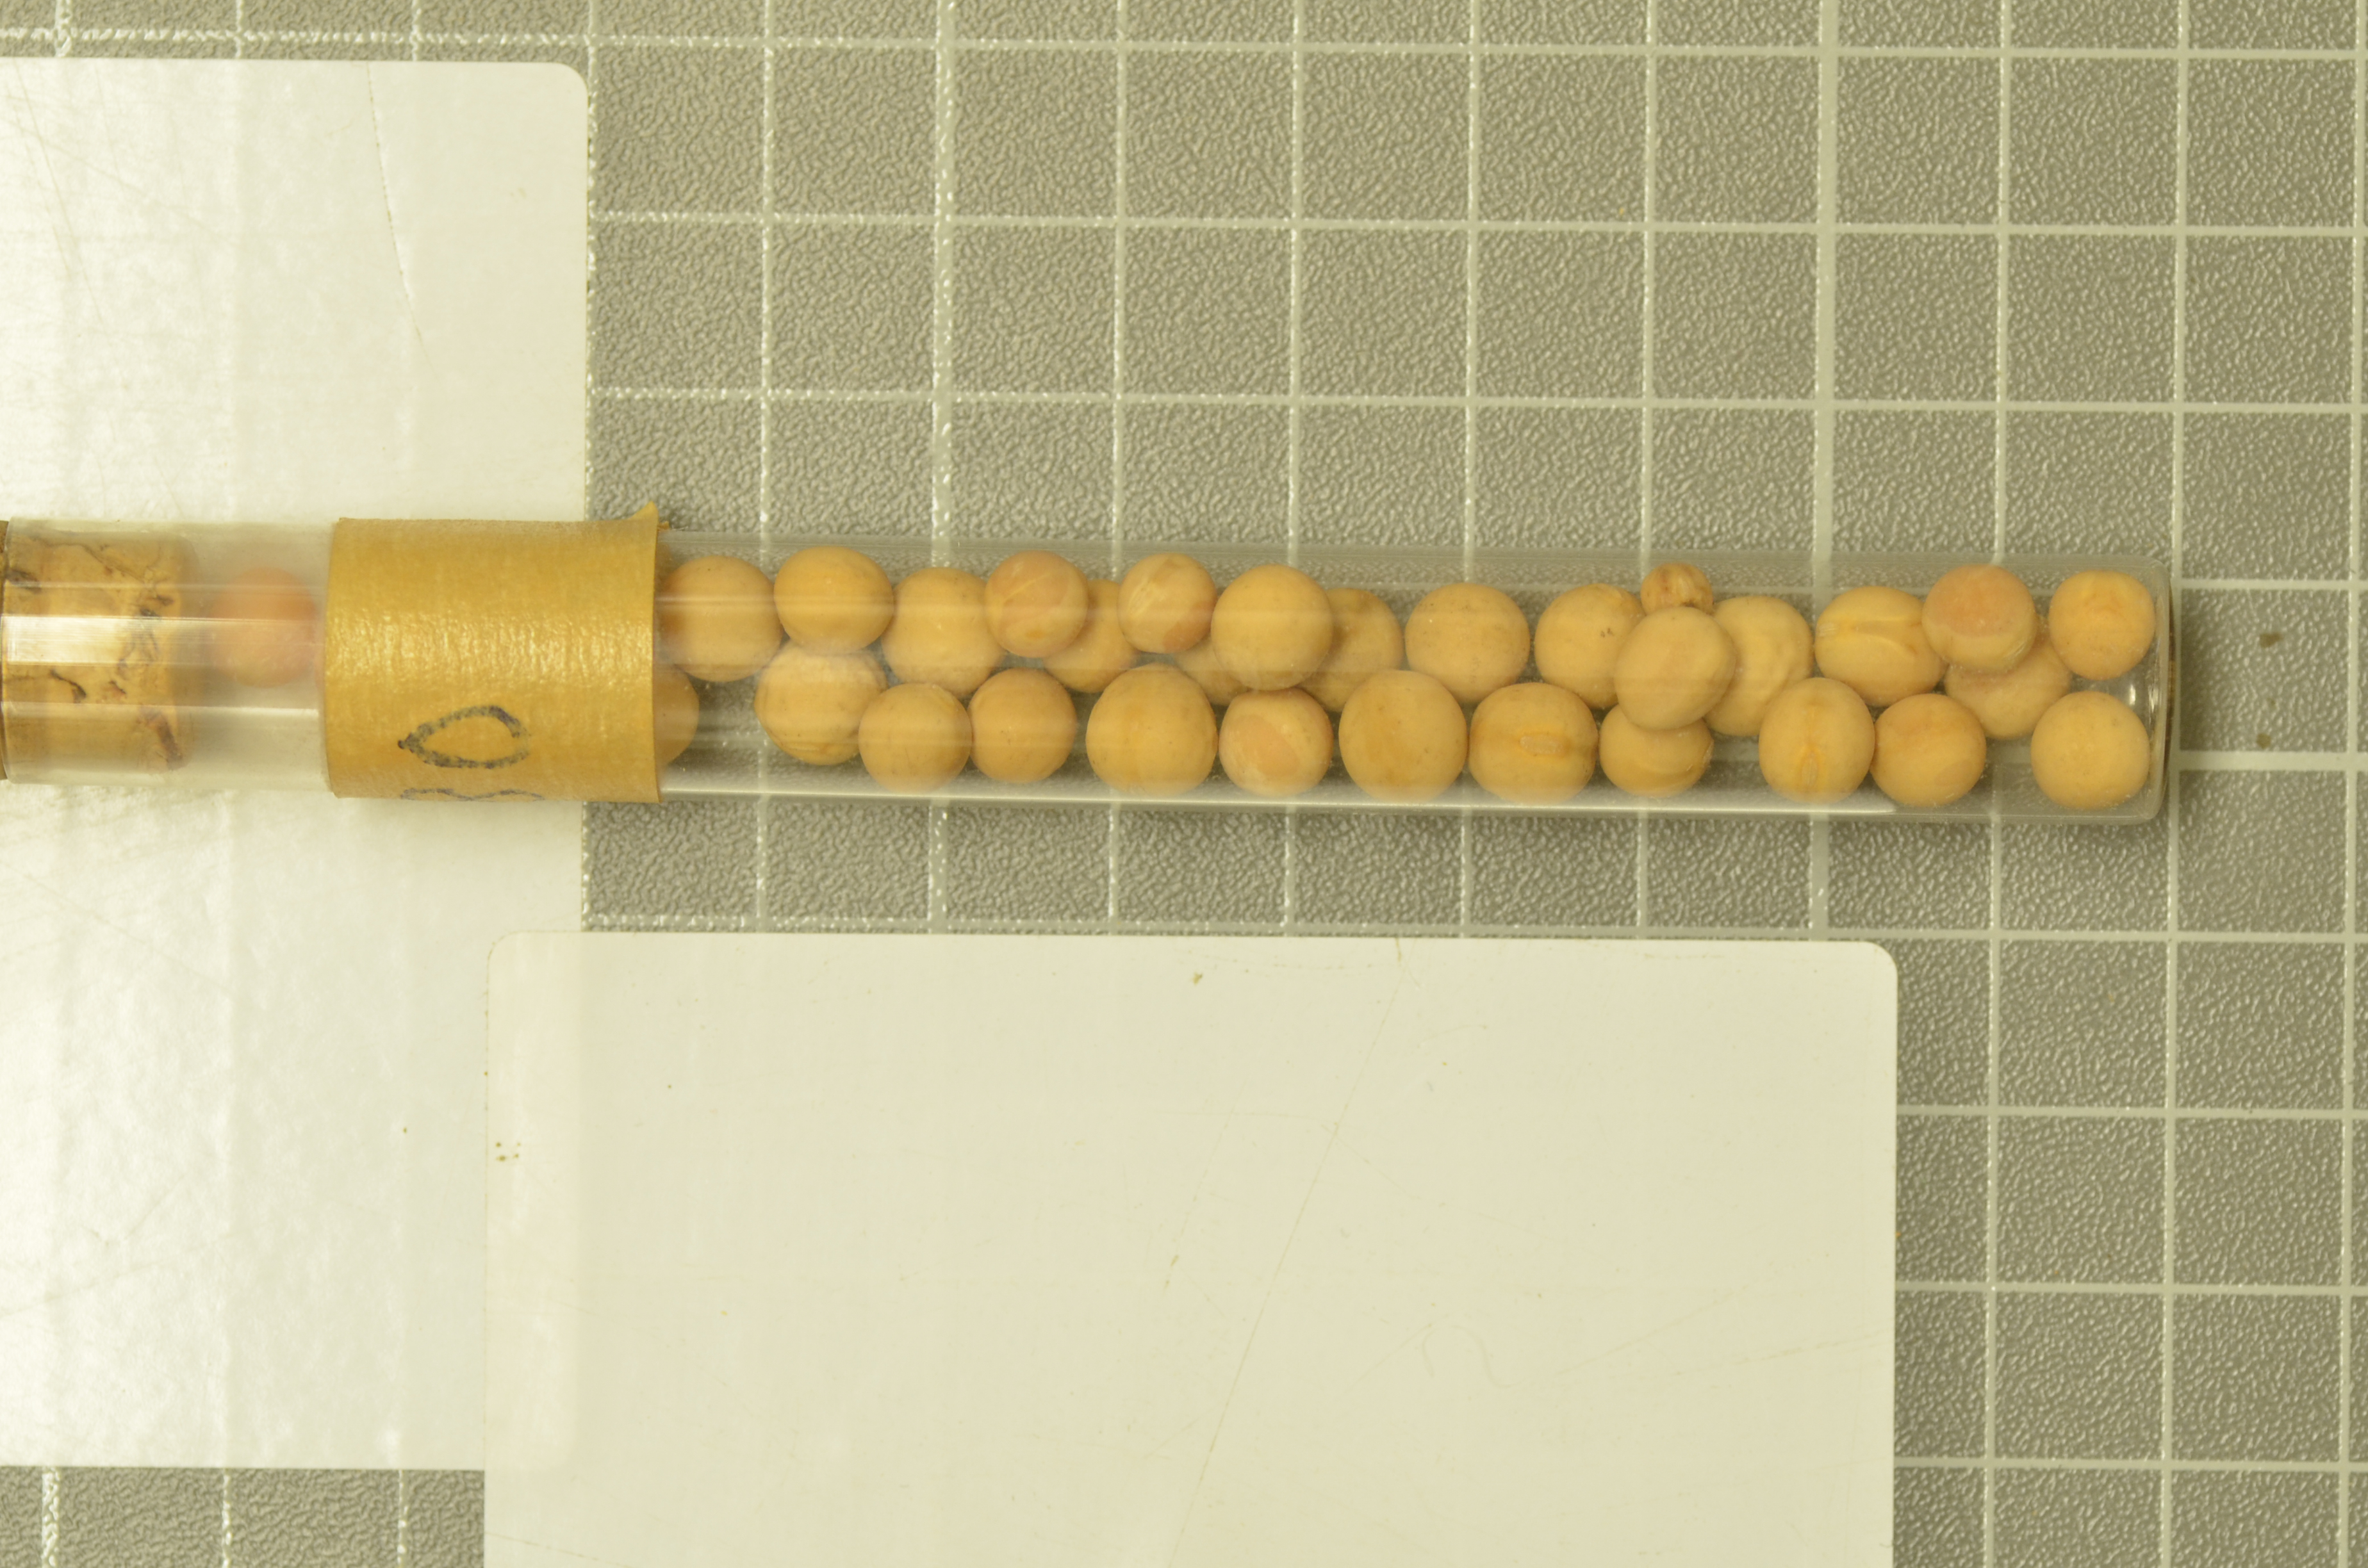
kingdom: Plantae
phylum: Tracheophyta
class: Magnoliopsida
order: Fabales
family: Fabaceae
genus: Lathyrus
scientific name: Lathyrus oleraceus
